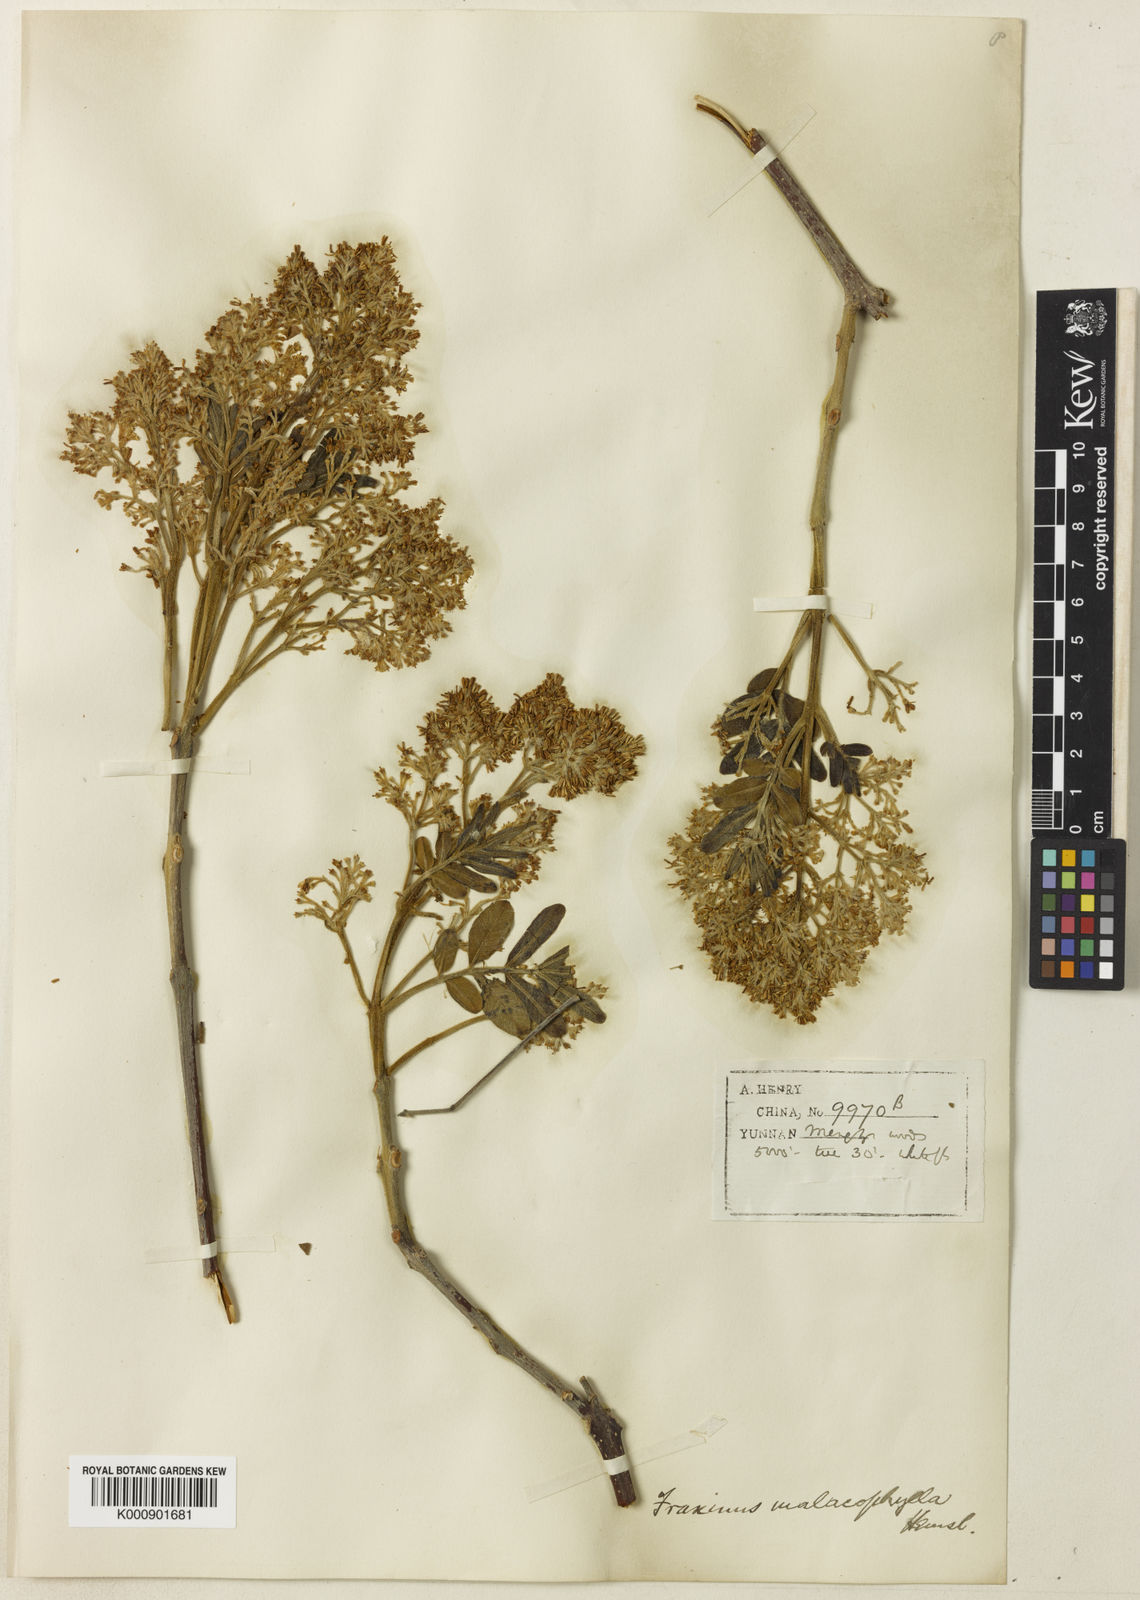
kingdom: Plantae
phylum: Tracheophyta
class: Magnoliopsida
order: Lamiales
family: Oleaceae
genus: Fraxinus
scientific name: Fraxinus malacophylla
